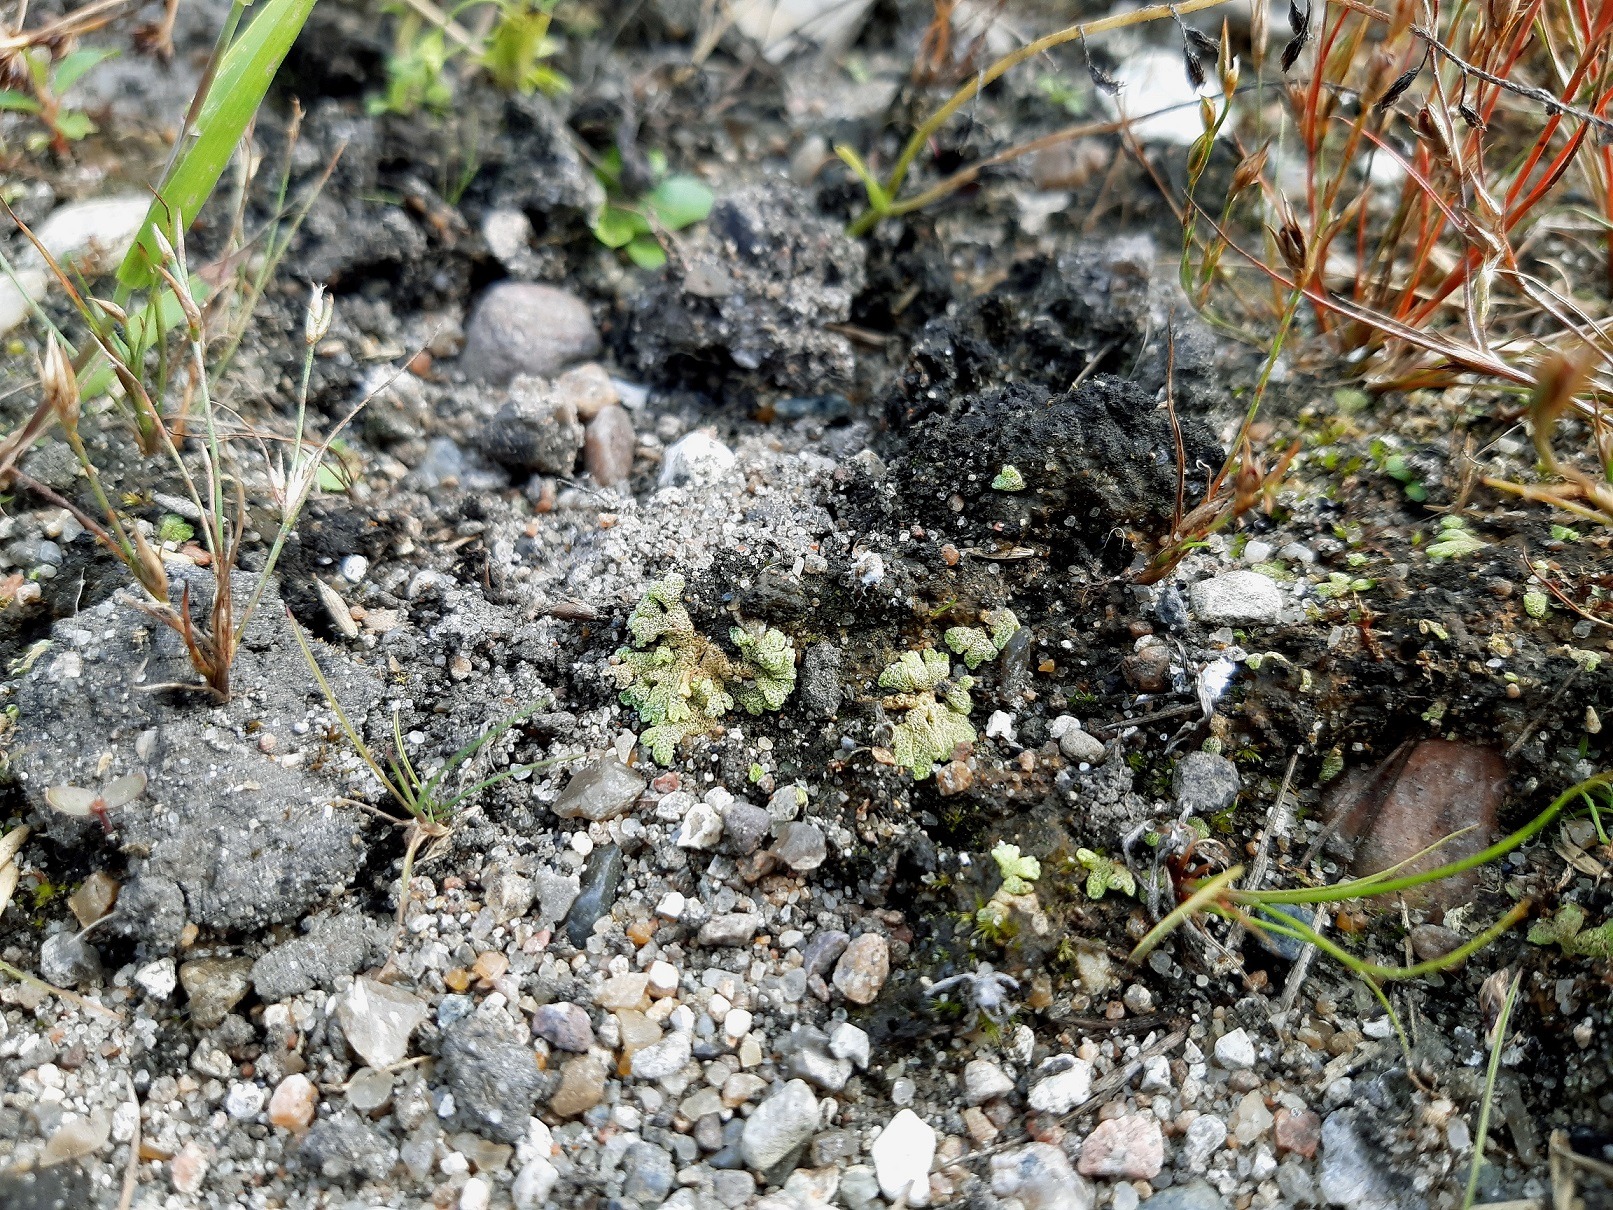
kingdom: Plantae
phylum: Marchantiophyta
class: Marchantiopsida
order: Marchantiales
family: Ricciaceae
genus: Riccia
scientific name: Riccia cavernosa
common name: Grubet stjerneløv
